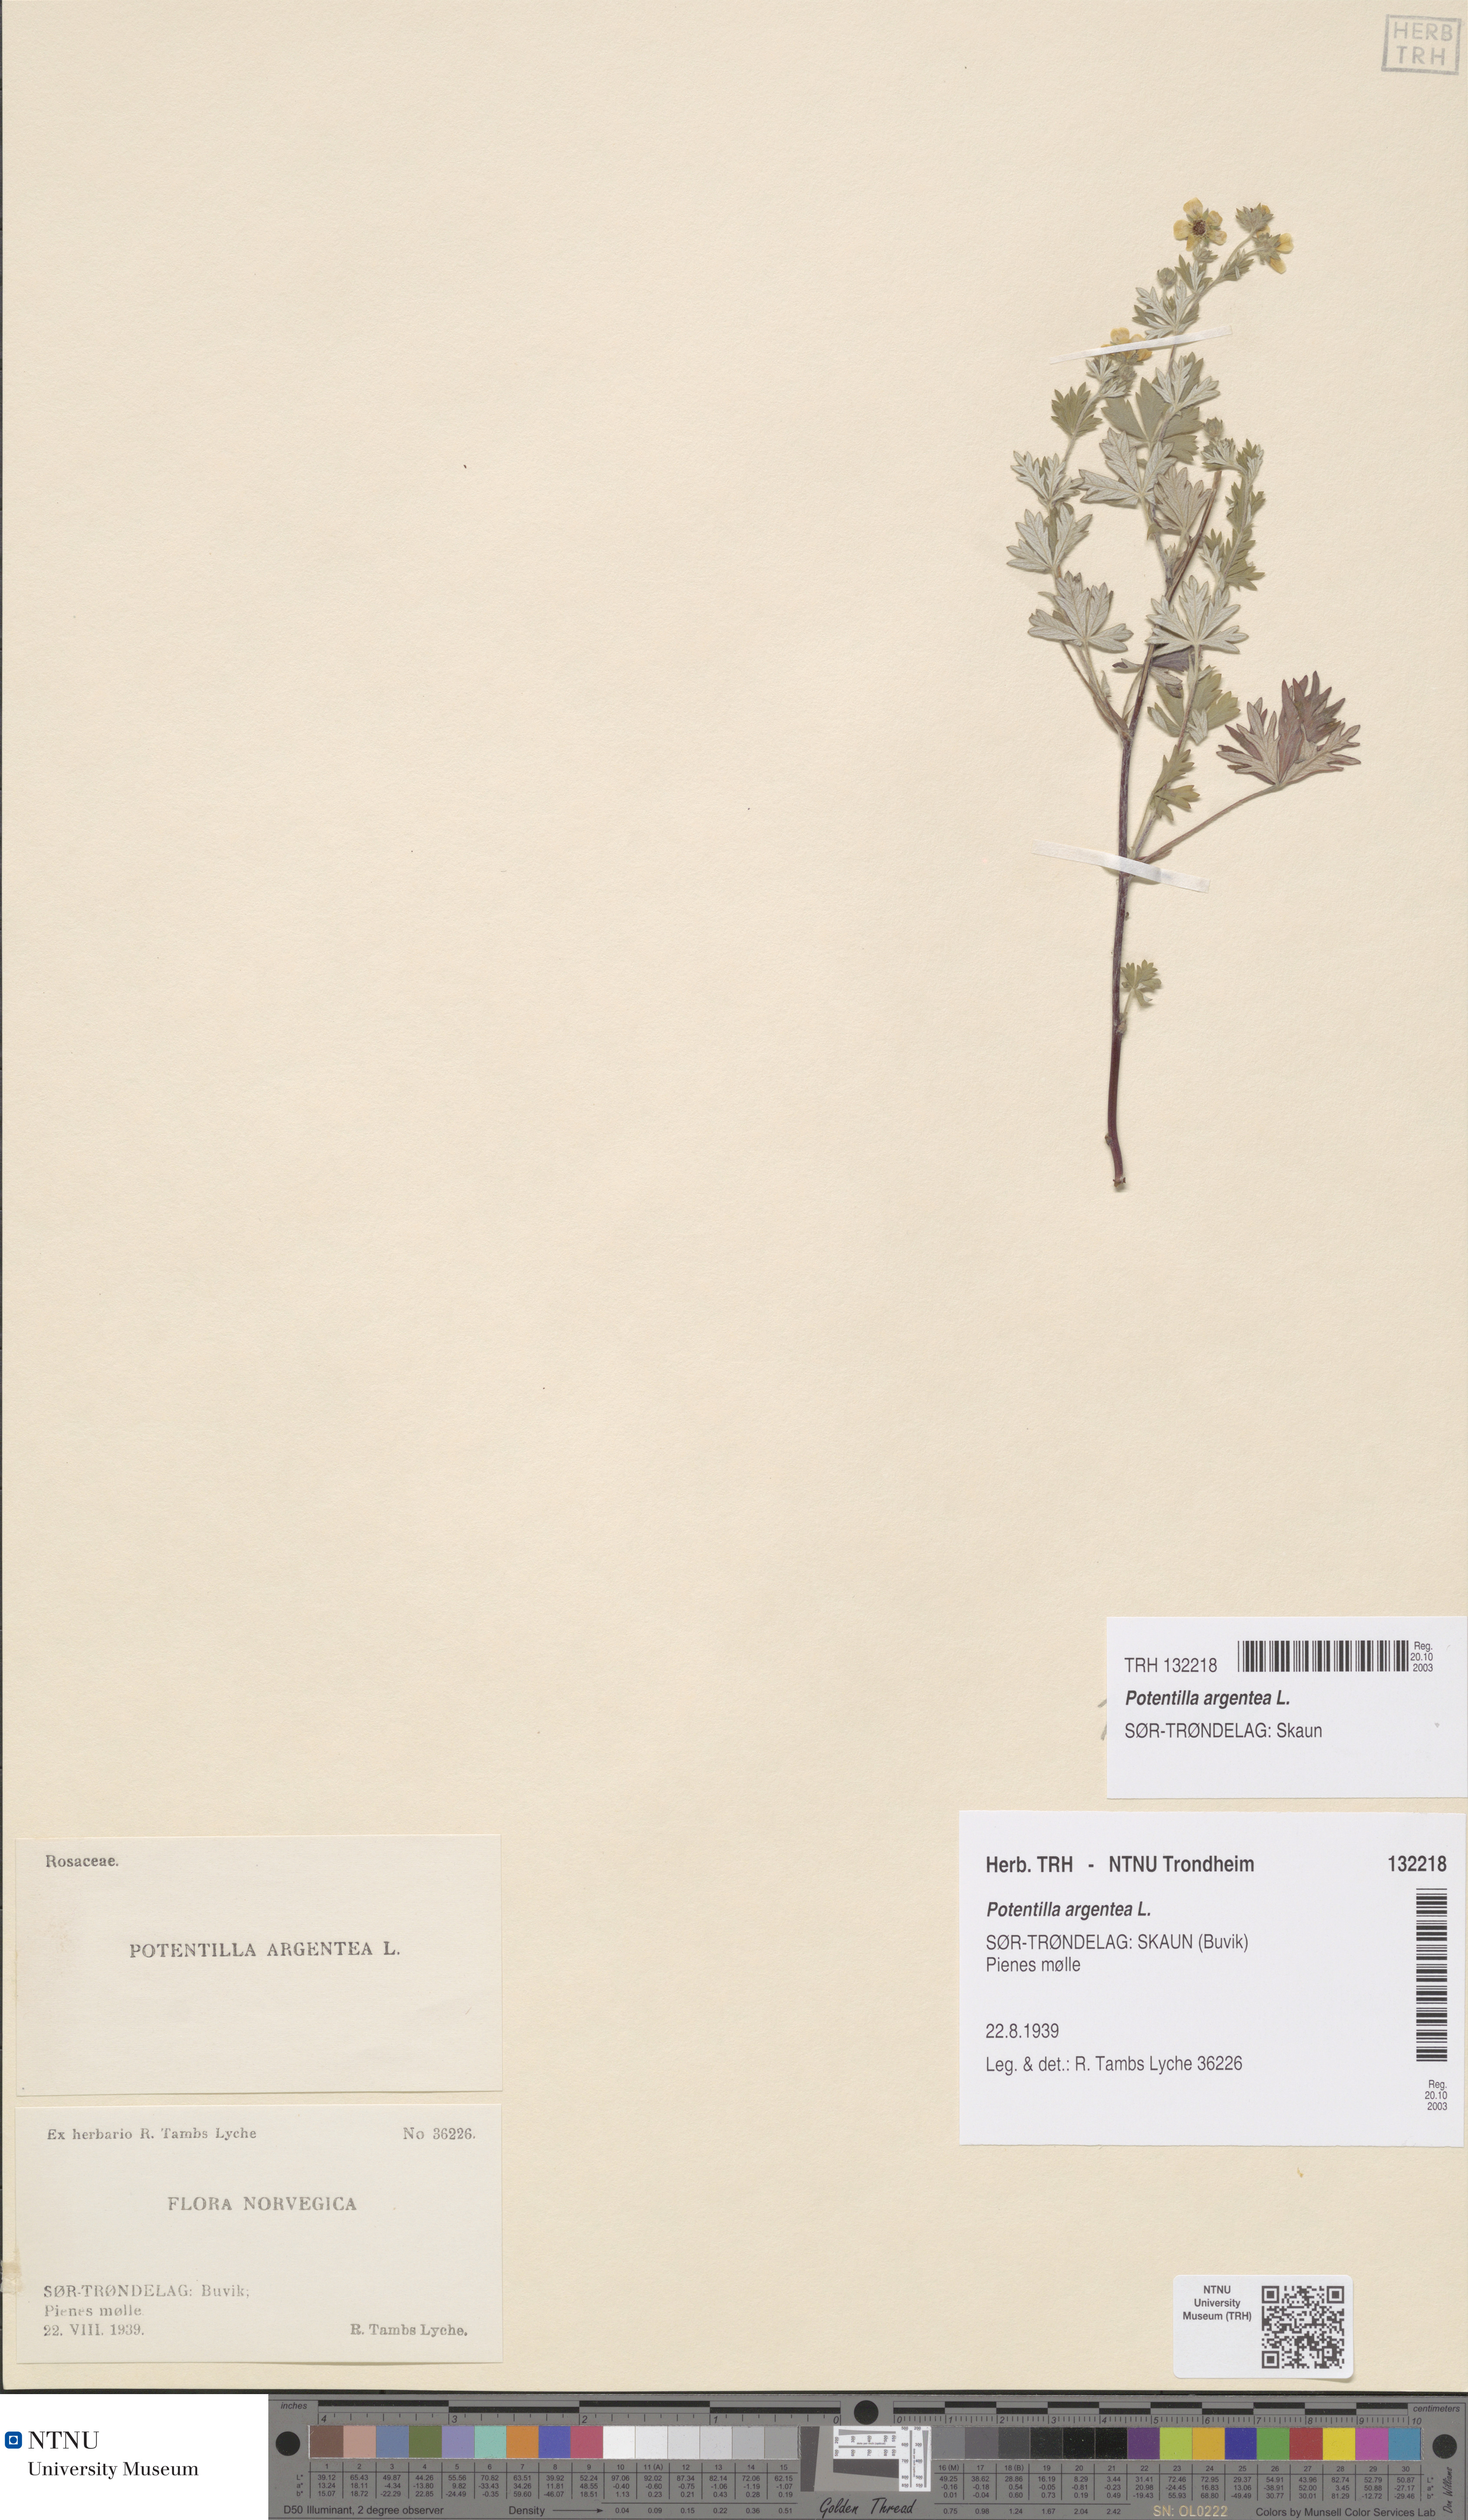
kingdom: Plantae
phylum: Tracheophyta
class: Magnoliopsida
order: Rosales
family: Rosaceae
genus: Potentilla
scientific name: Potentilla argentea
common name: Hoary cinquefoil
